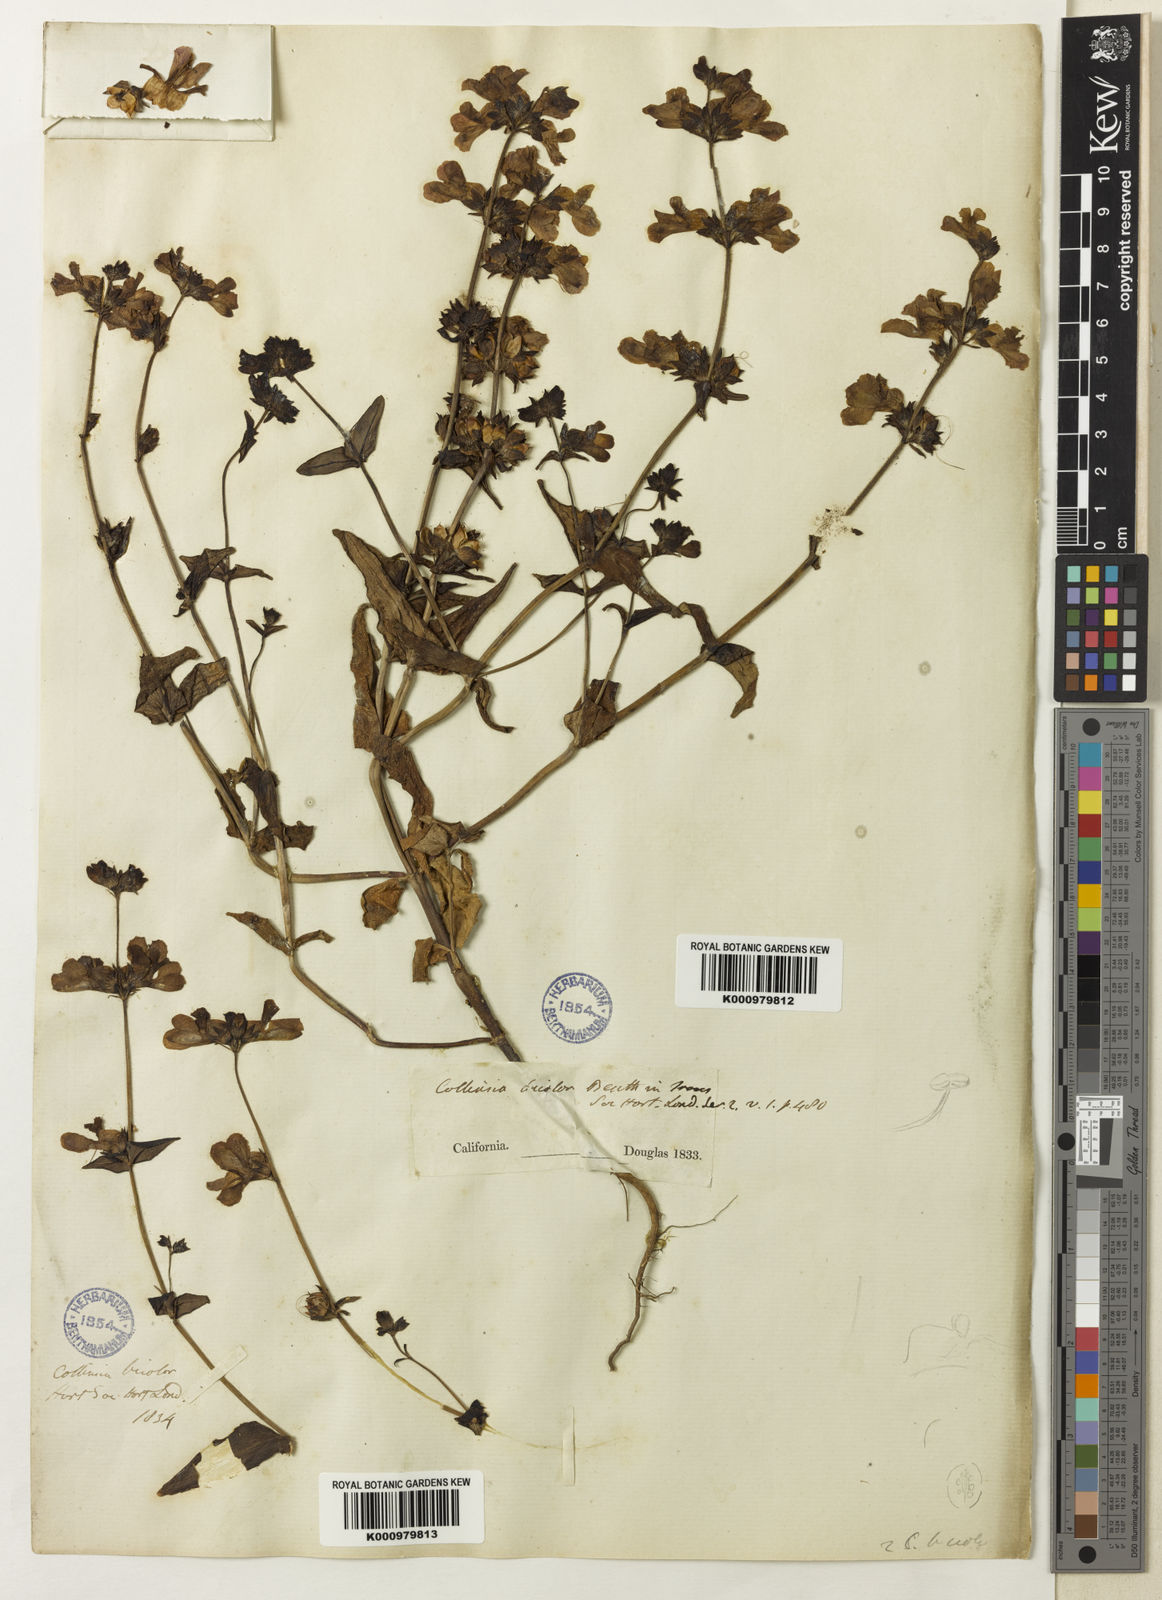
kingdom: Plantae
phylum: Tracheophyta
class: Magnoliopsida
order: Lamiales
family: Plantaginaceae
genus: Collinsia
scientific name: Collinsia heterophylla
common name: Chinese-houses
